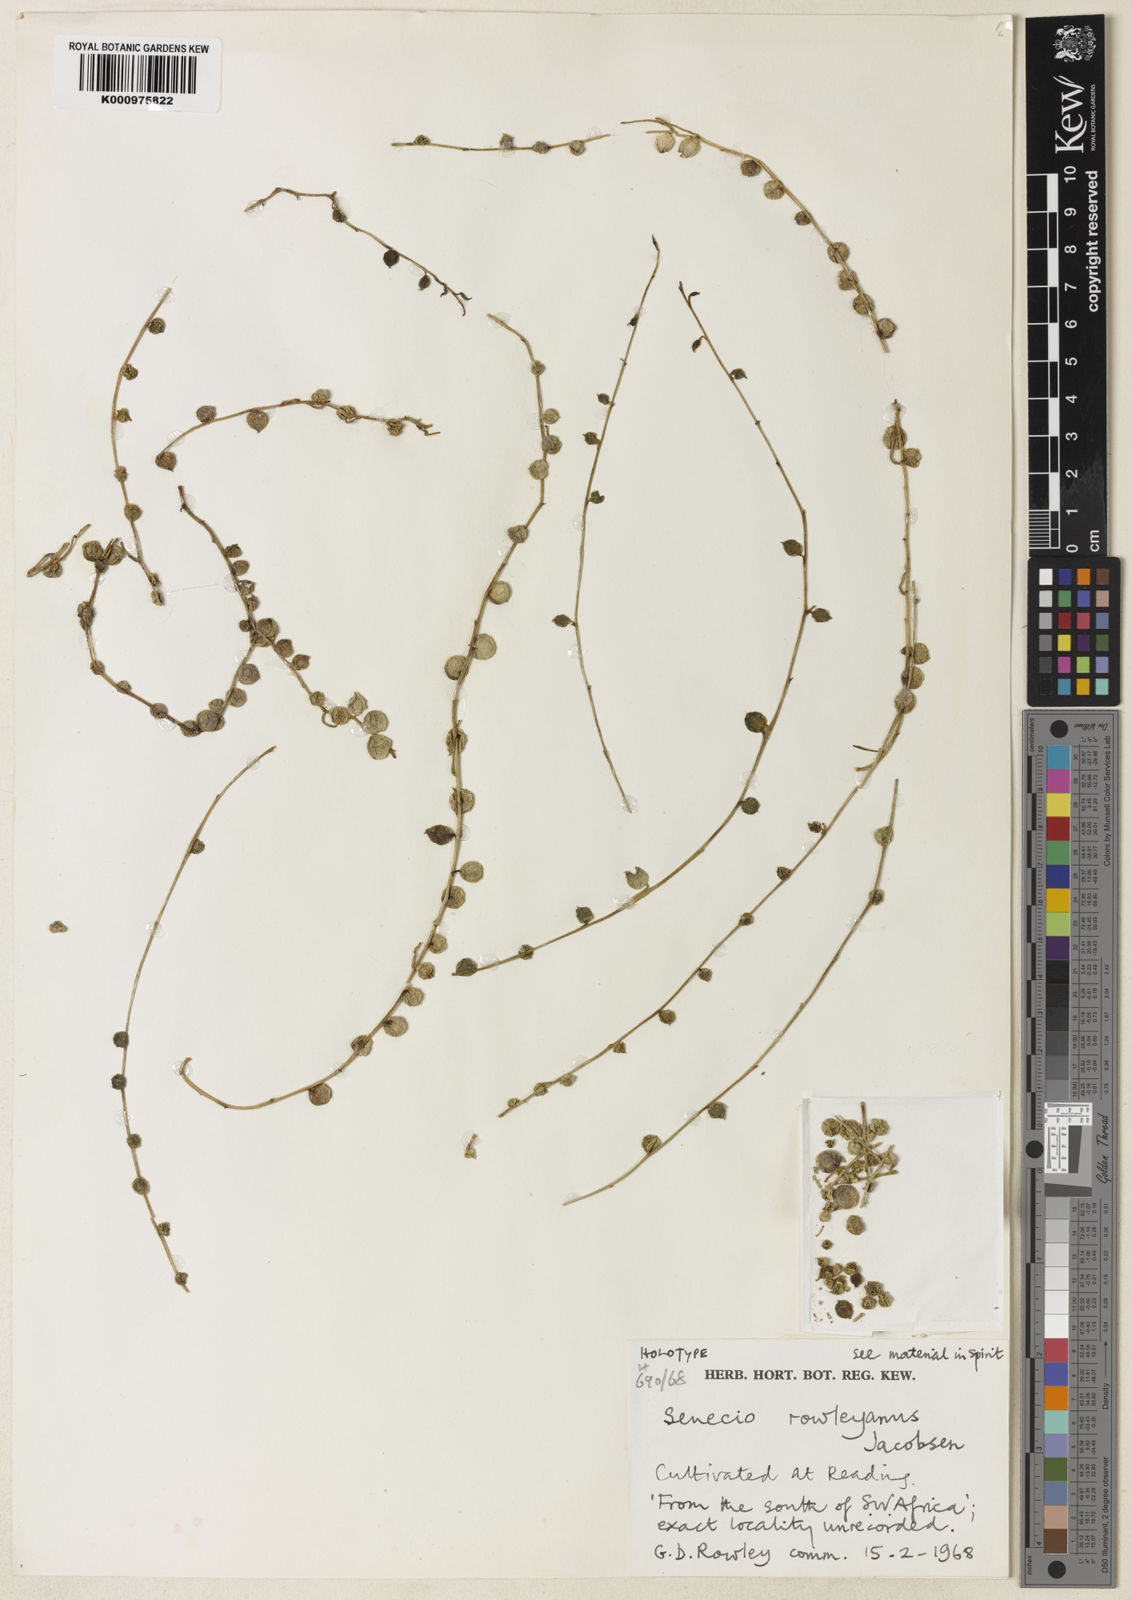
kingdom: Plantae
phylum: Tracheophyta
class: Magnoliopsida
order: Asterales
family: Asteraceae
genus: Curio
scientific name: Curio rowleyanus
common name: String-of-beads
